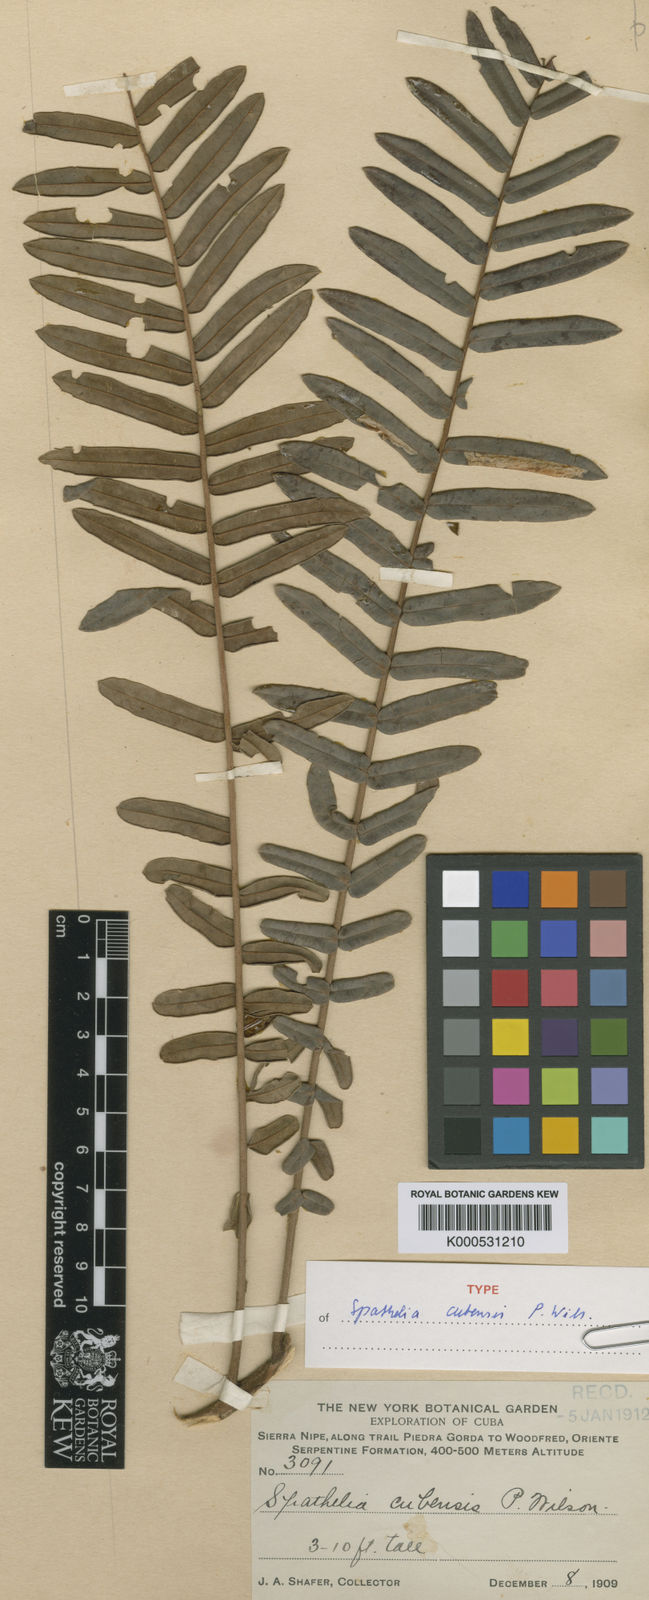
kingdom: Plantae
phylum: Tracheophyta
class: Magnoliopsida
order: Sapindales
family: Rutaceae
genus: Spathelia
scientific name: Spathelia cubensis
